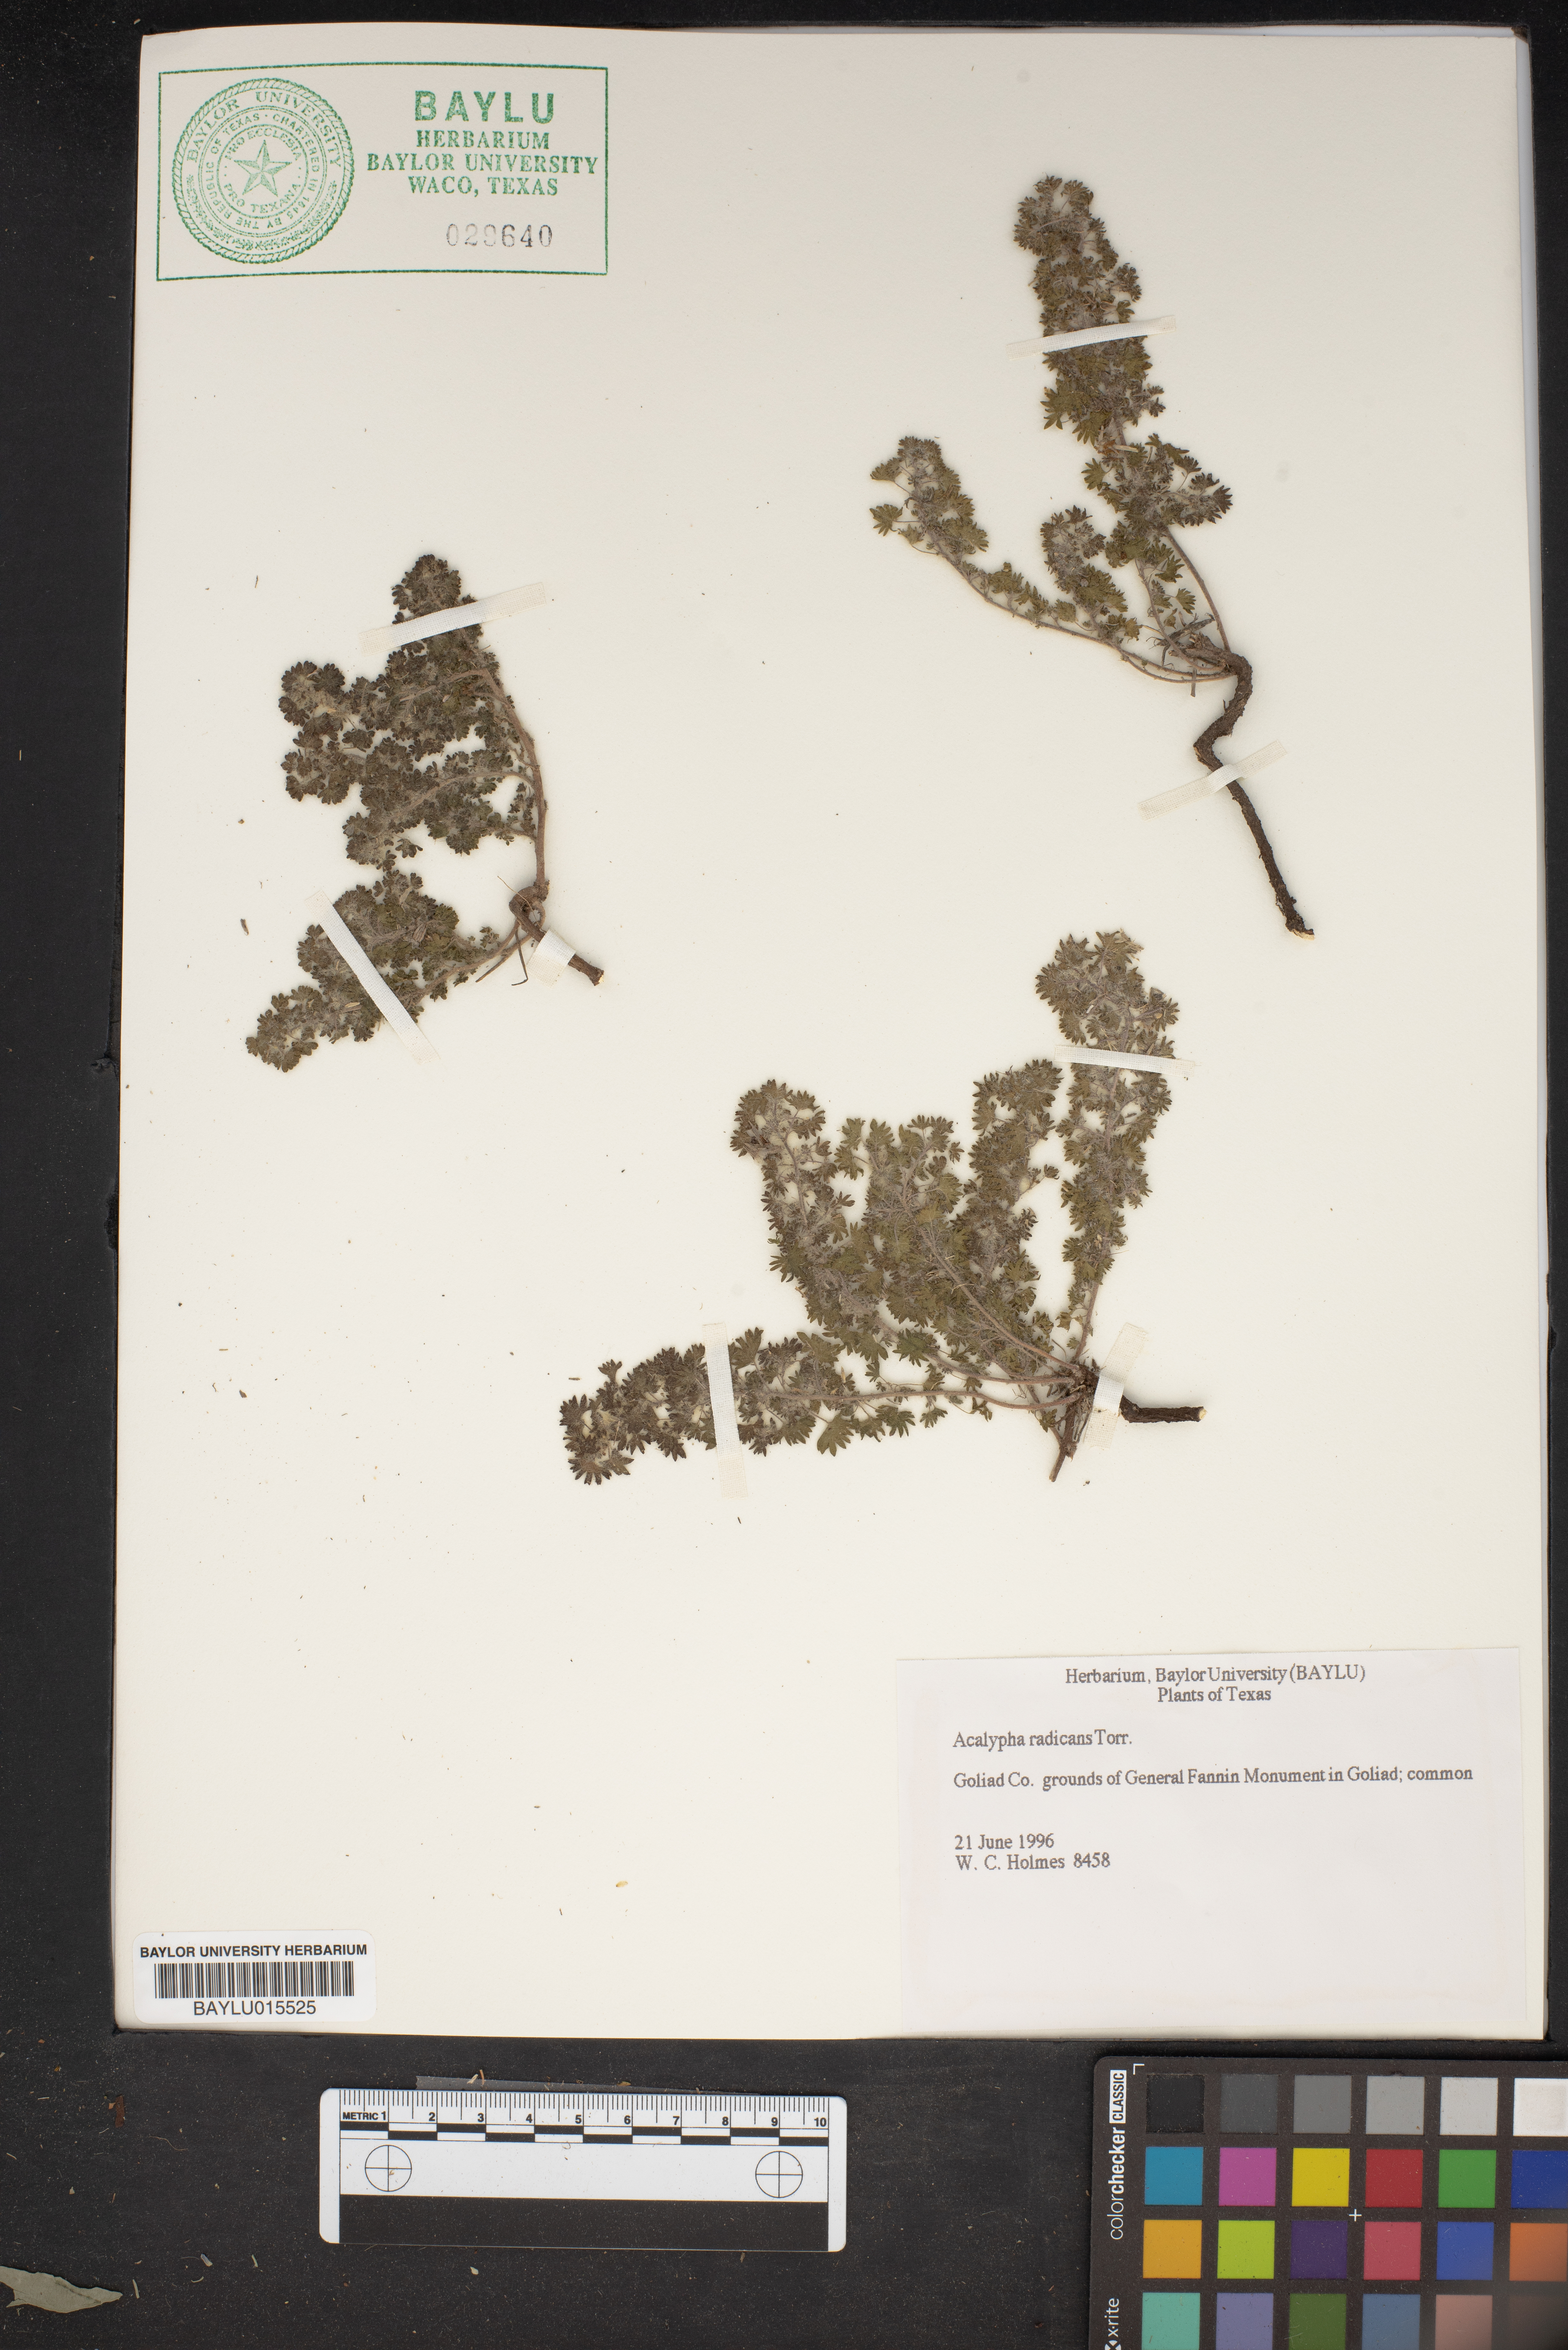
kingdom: Plantae
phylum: Tracheophyta
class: Magnoliopsida
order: Malpighiales
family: Euphorbiaceae
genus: Acalypha
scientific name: Acalypha radians
